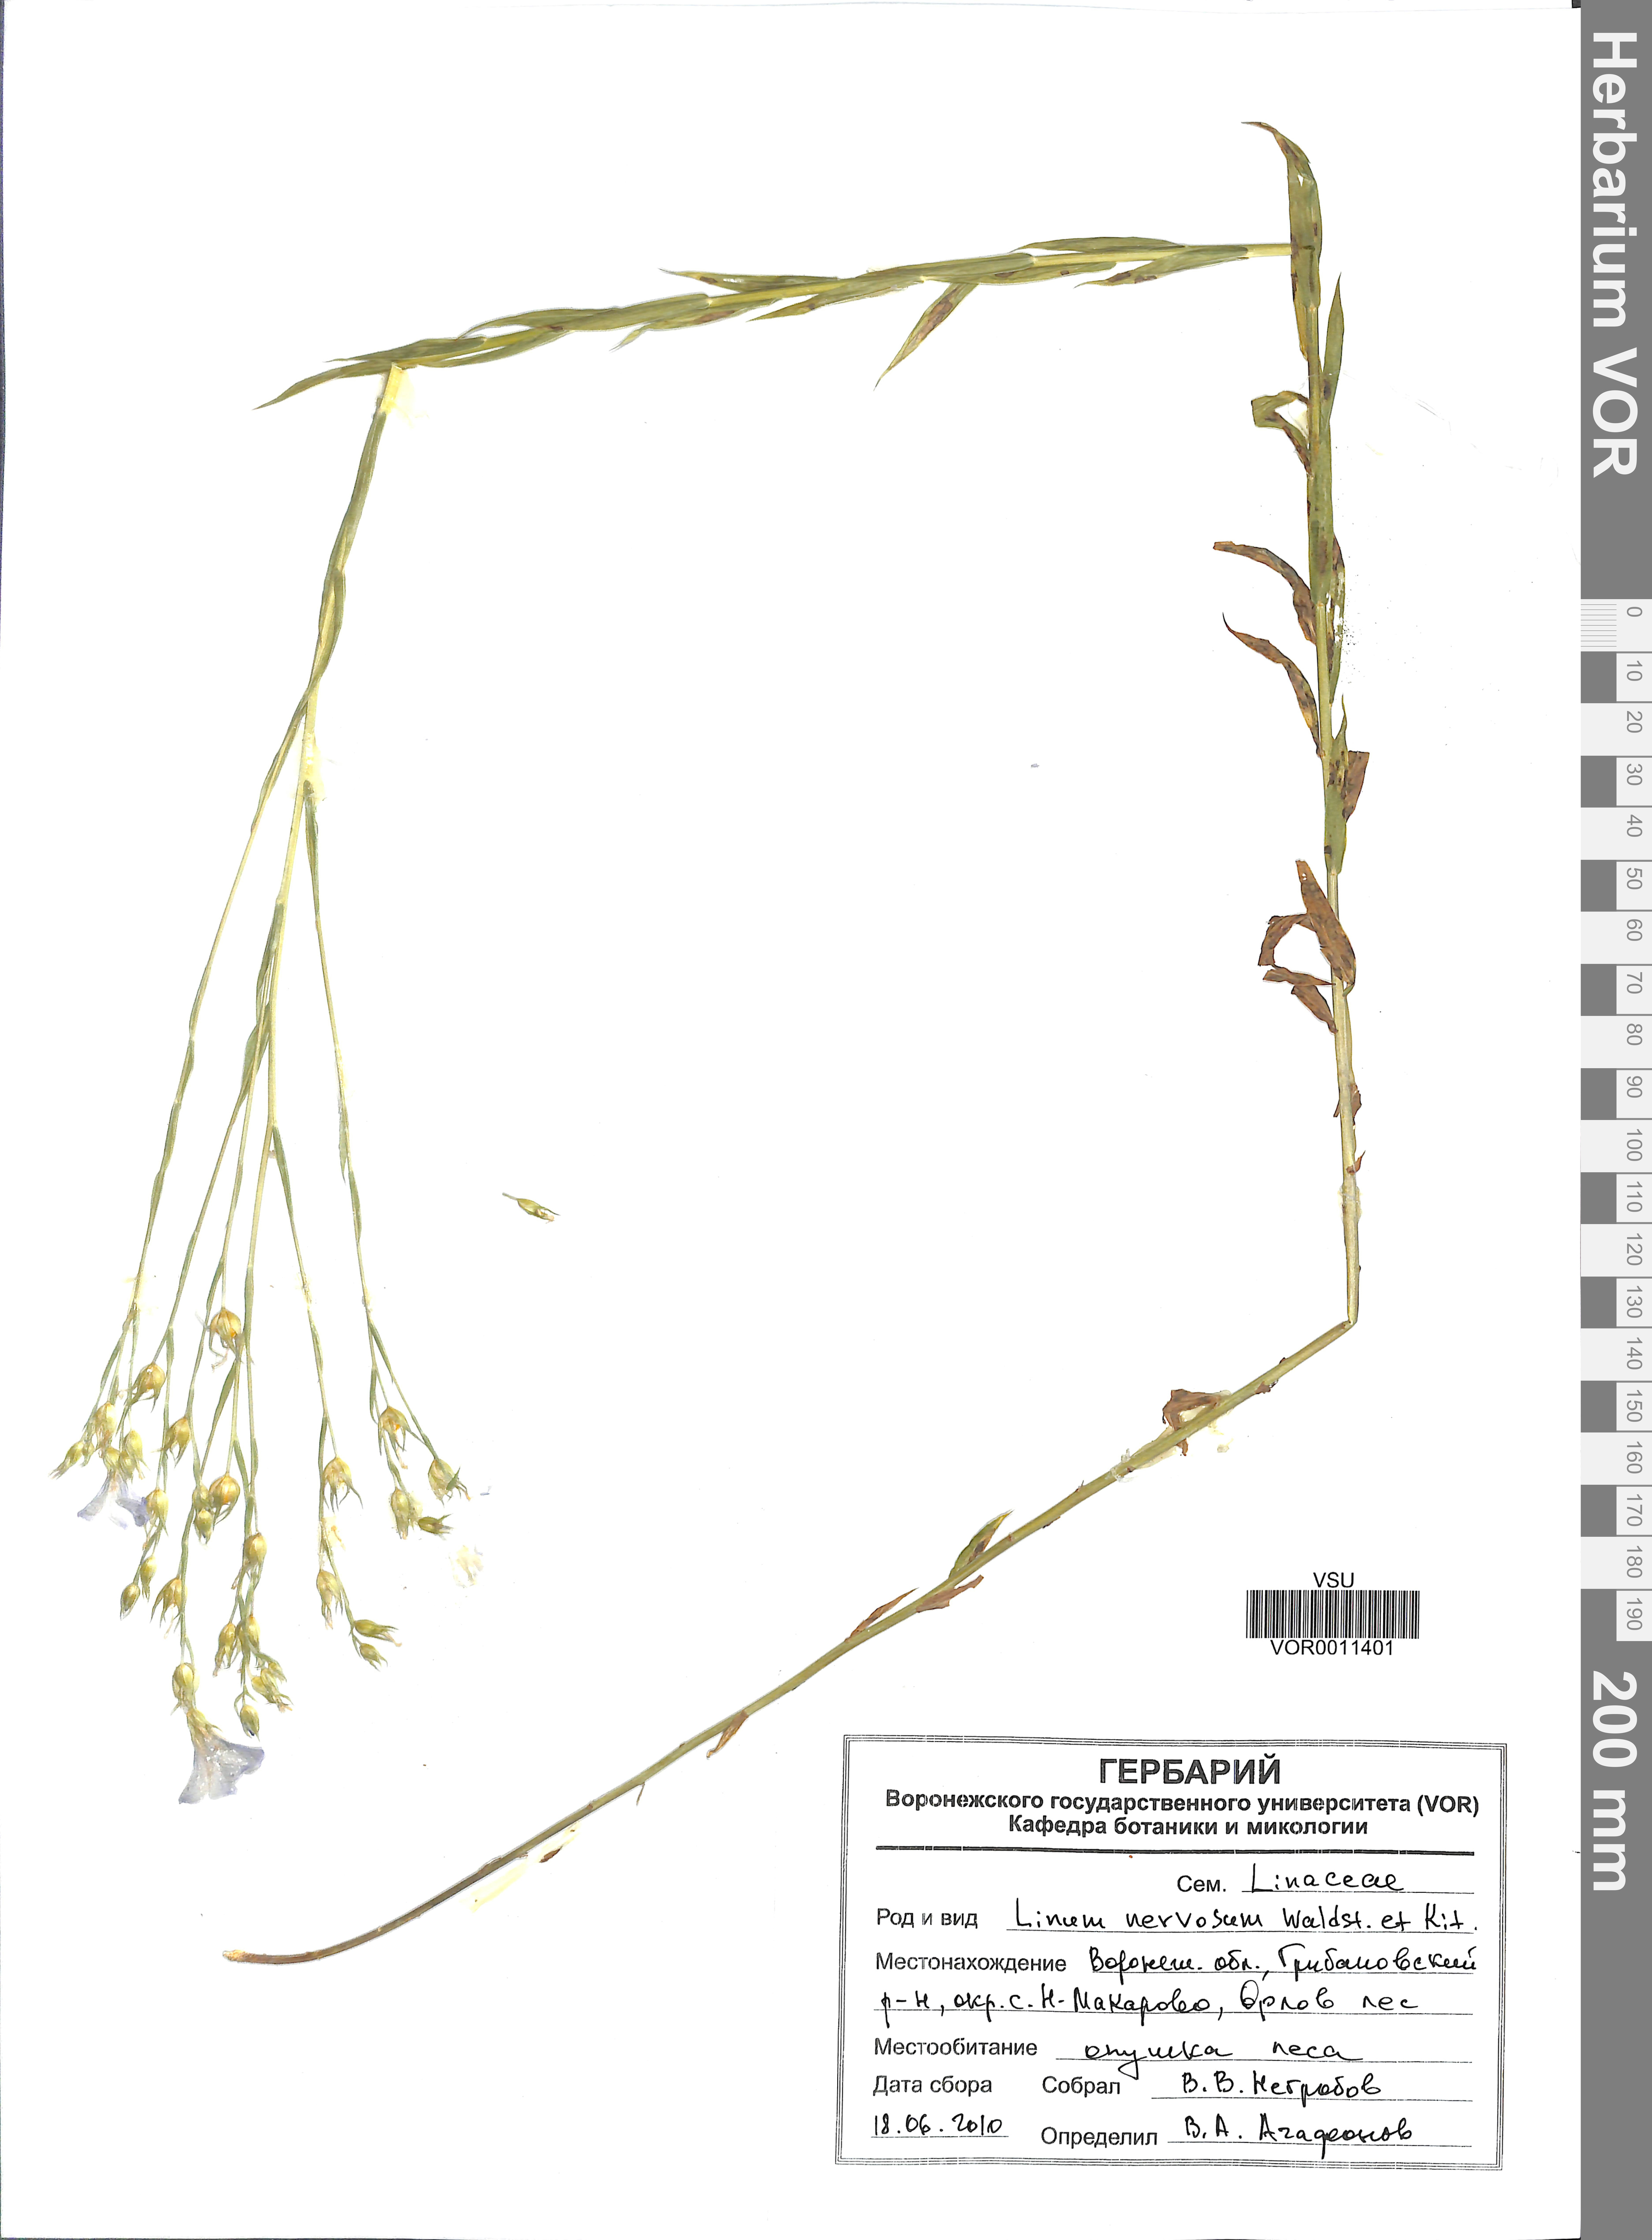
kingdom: Plantae
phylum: Tracheophyta
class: Magnoliopsida
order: Malpighiales
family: Linaceae
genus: Linum
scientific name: Linum nervosum
